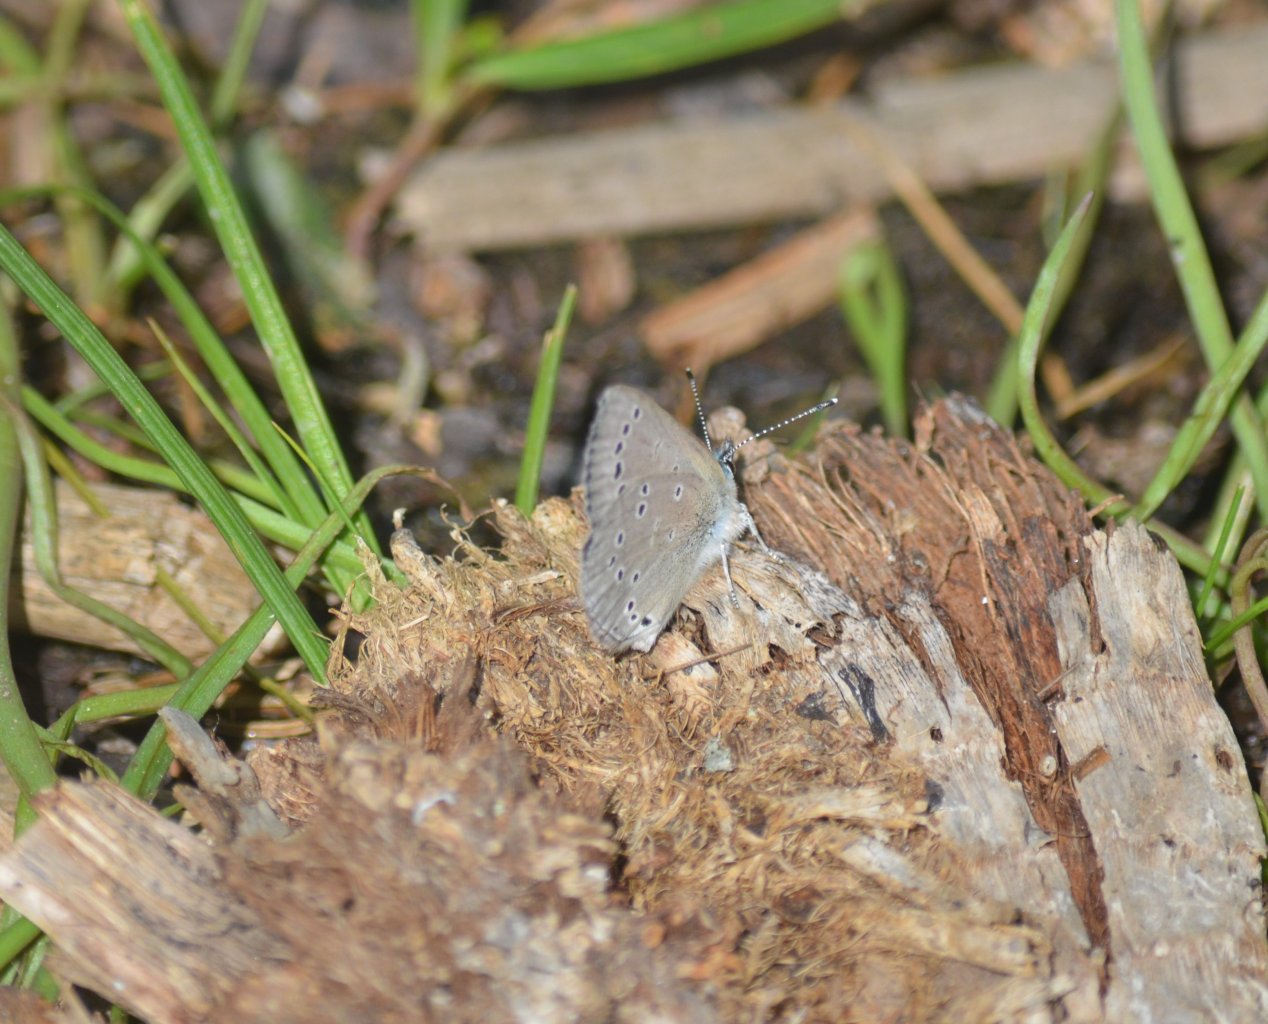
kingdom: Animalia
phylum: Arthropoda
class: Insecta
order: Lepidoptera
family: Lycaenidae
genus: Glaucopsyche
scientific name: Glaucopsyche lygdamus
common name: Silvery Blue
